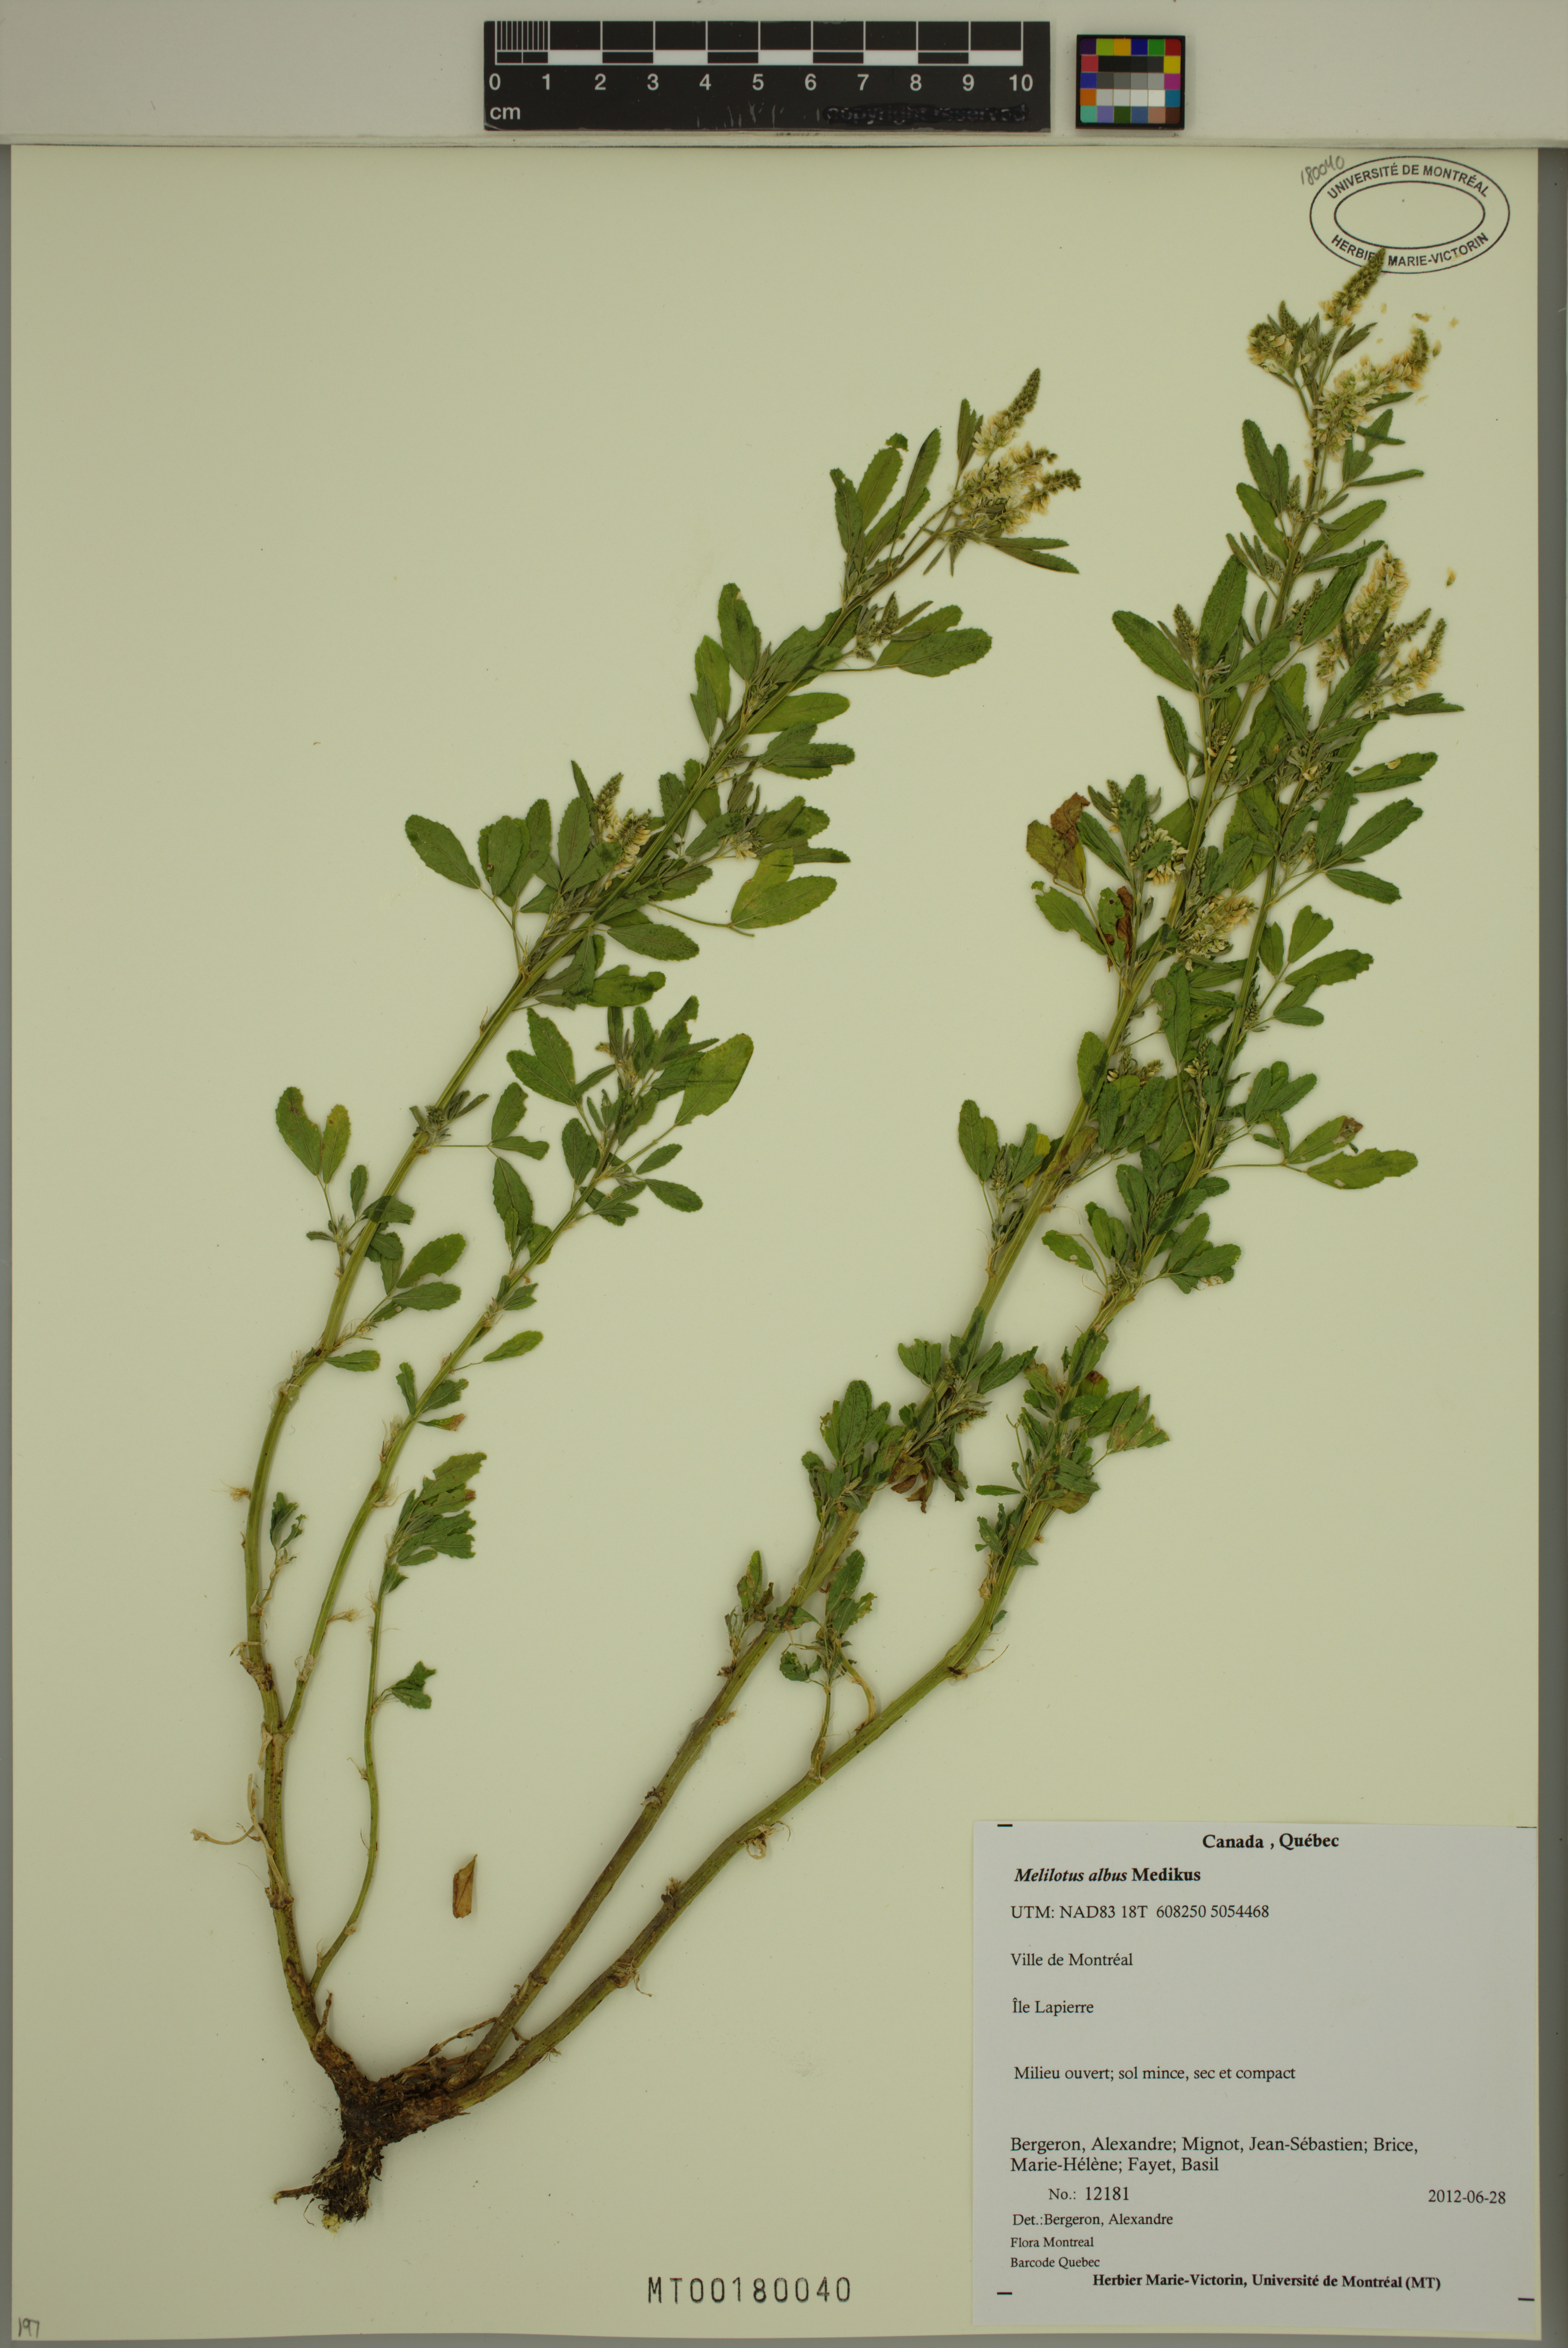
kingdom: Plantae
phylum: Tracheophyta
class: Magnoliopsida
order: Fabales
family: Fabaceae
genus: Melilotus
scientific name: Melilotus albus
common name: White melilot
